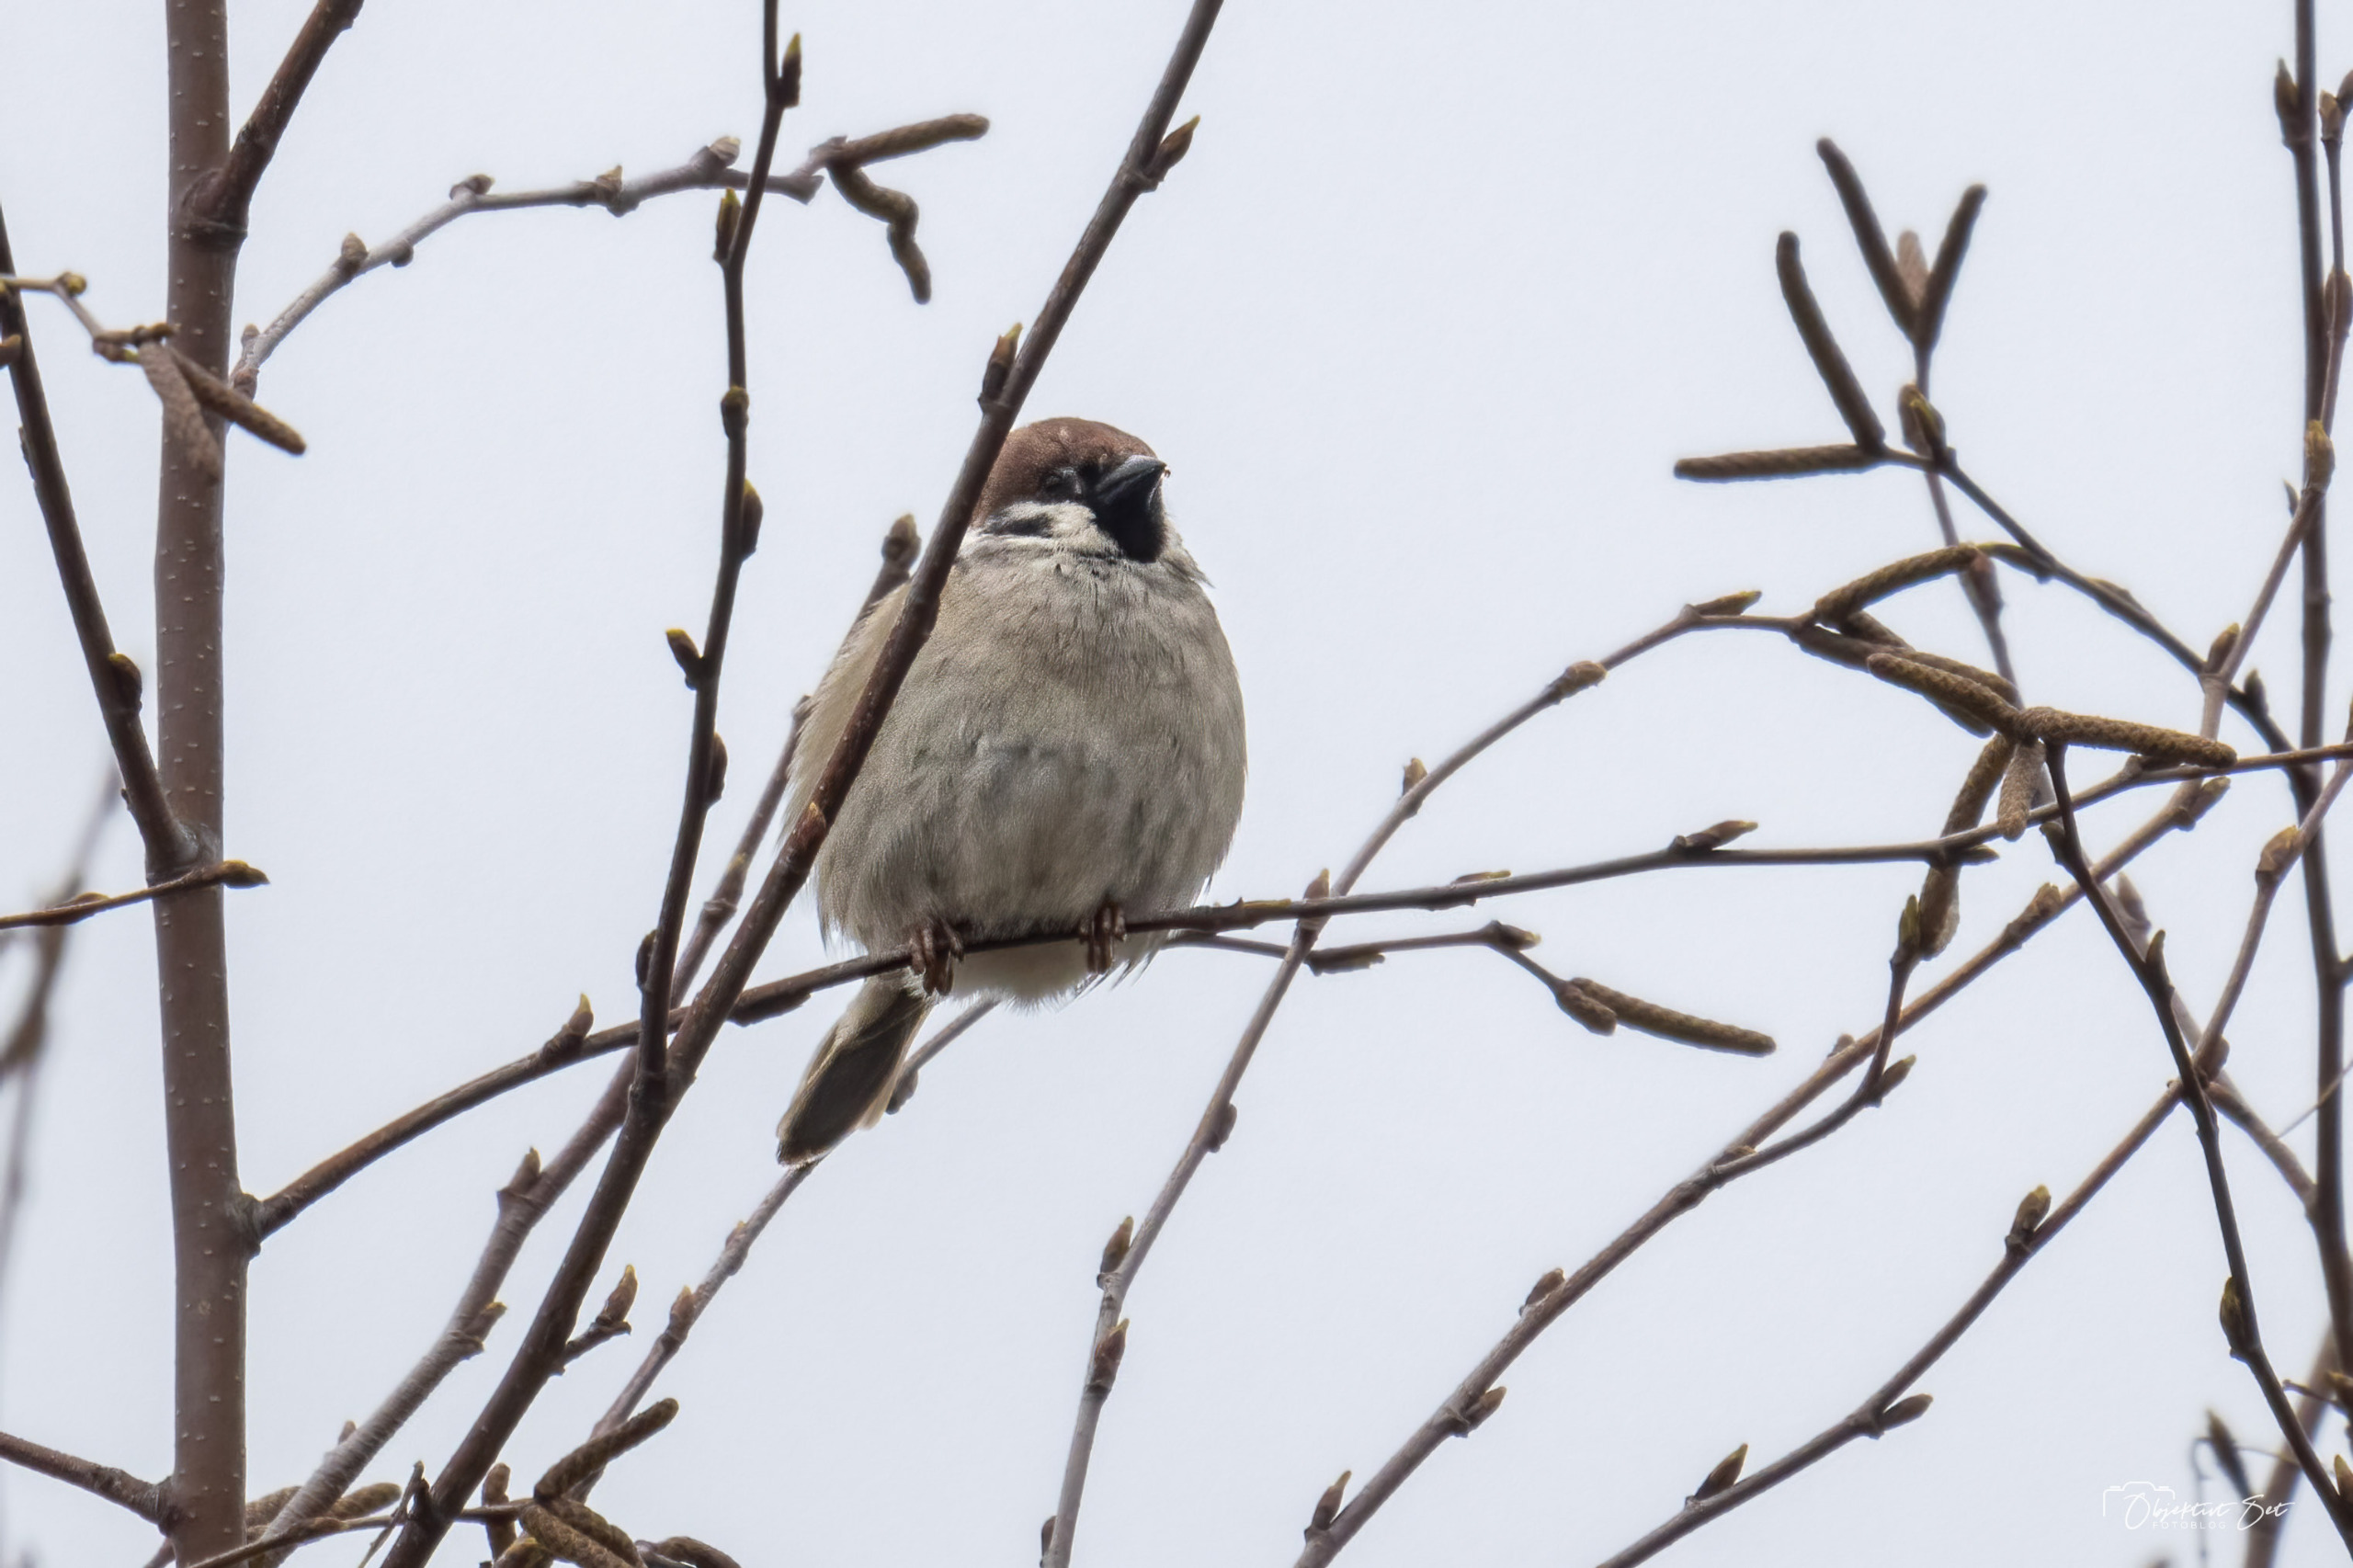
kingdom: Animalia
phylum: Chordata
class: Aves
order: Passeriformes
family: Passeridae
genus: Passer
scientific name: Passer montanus
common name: Skovspurv
